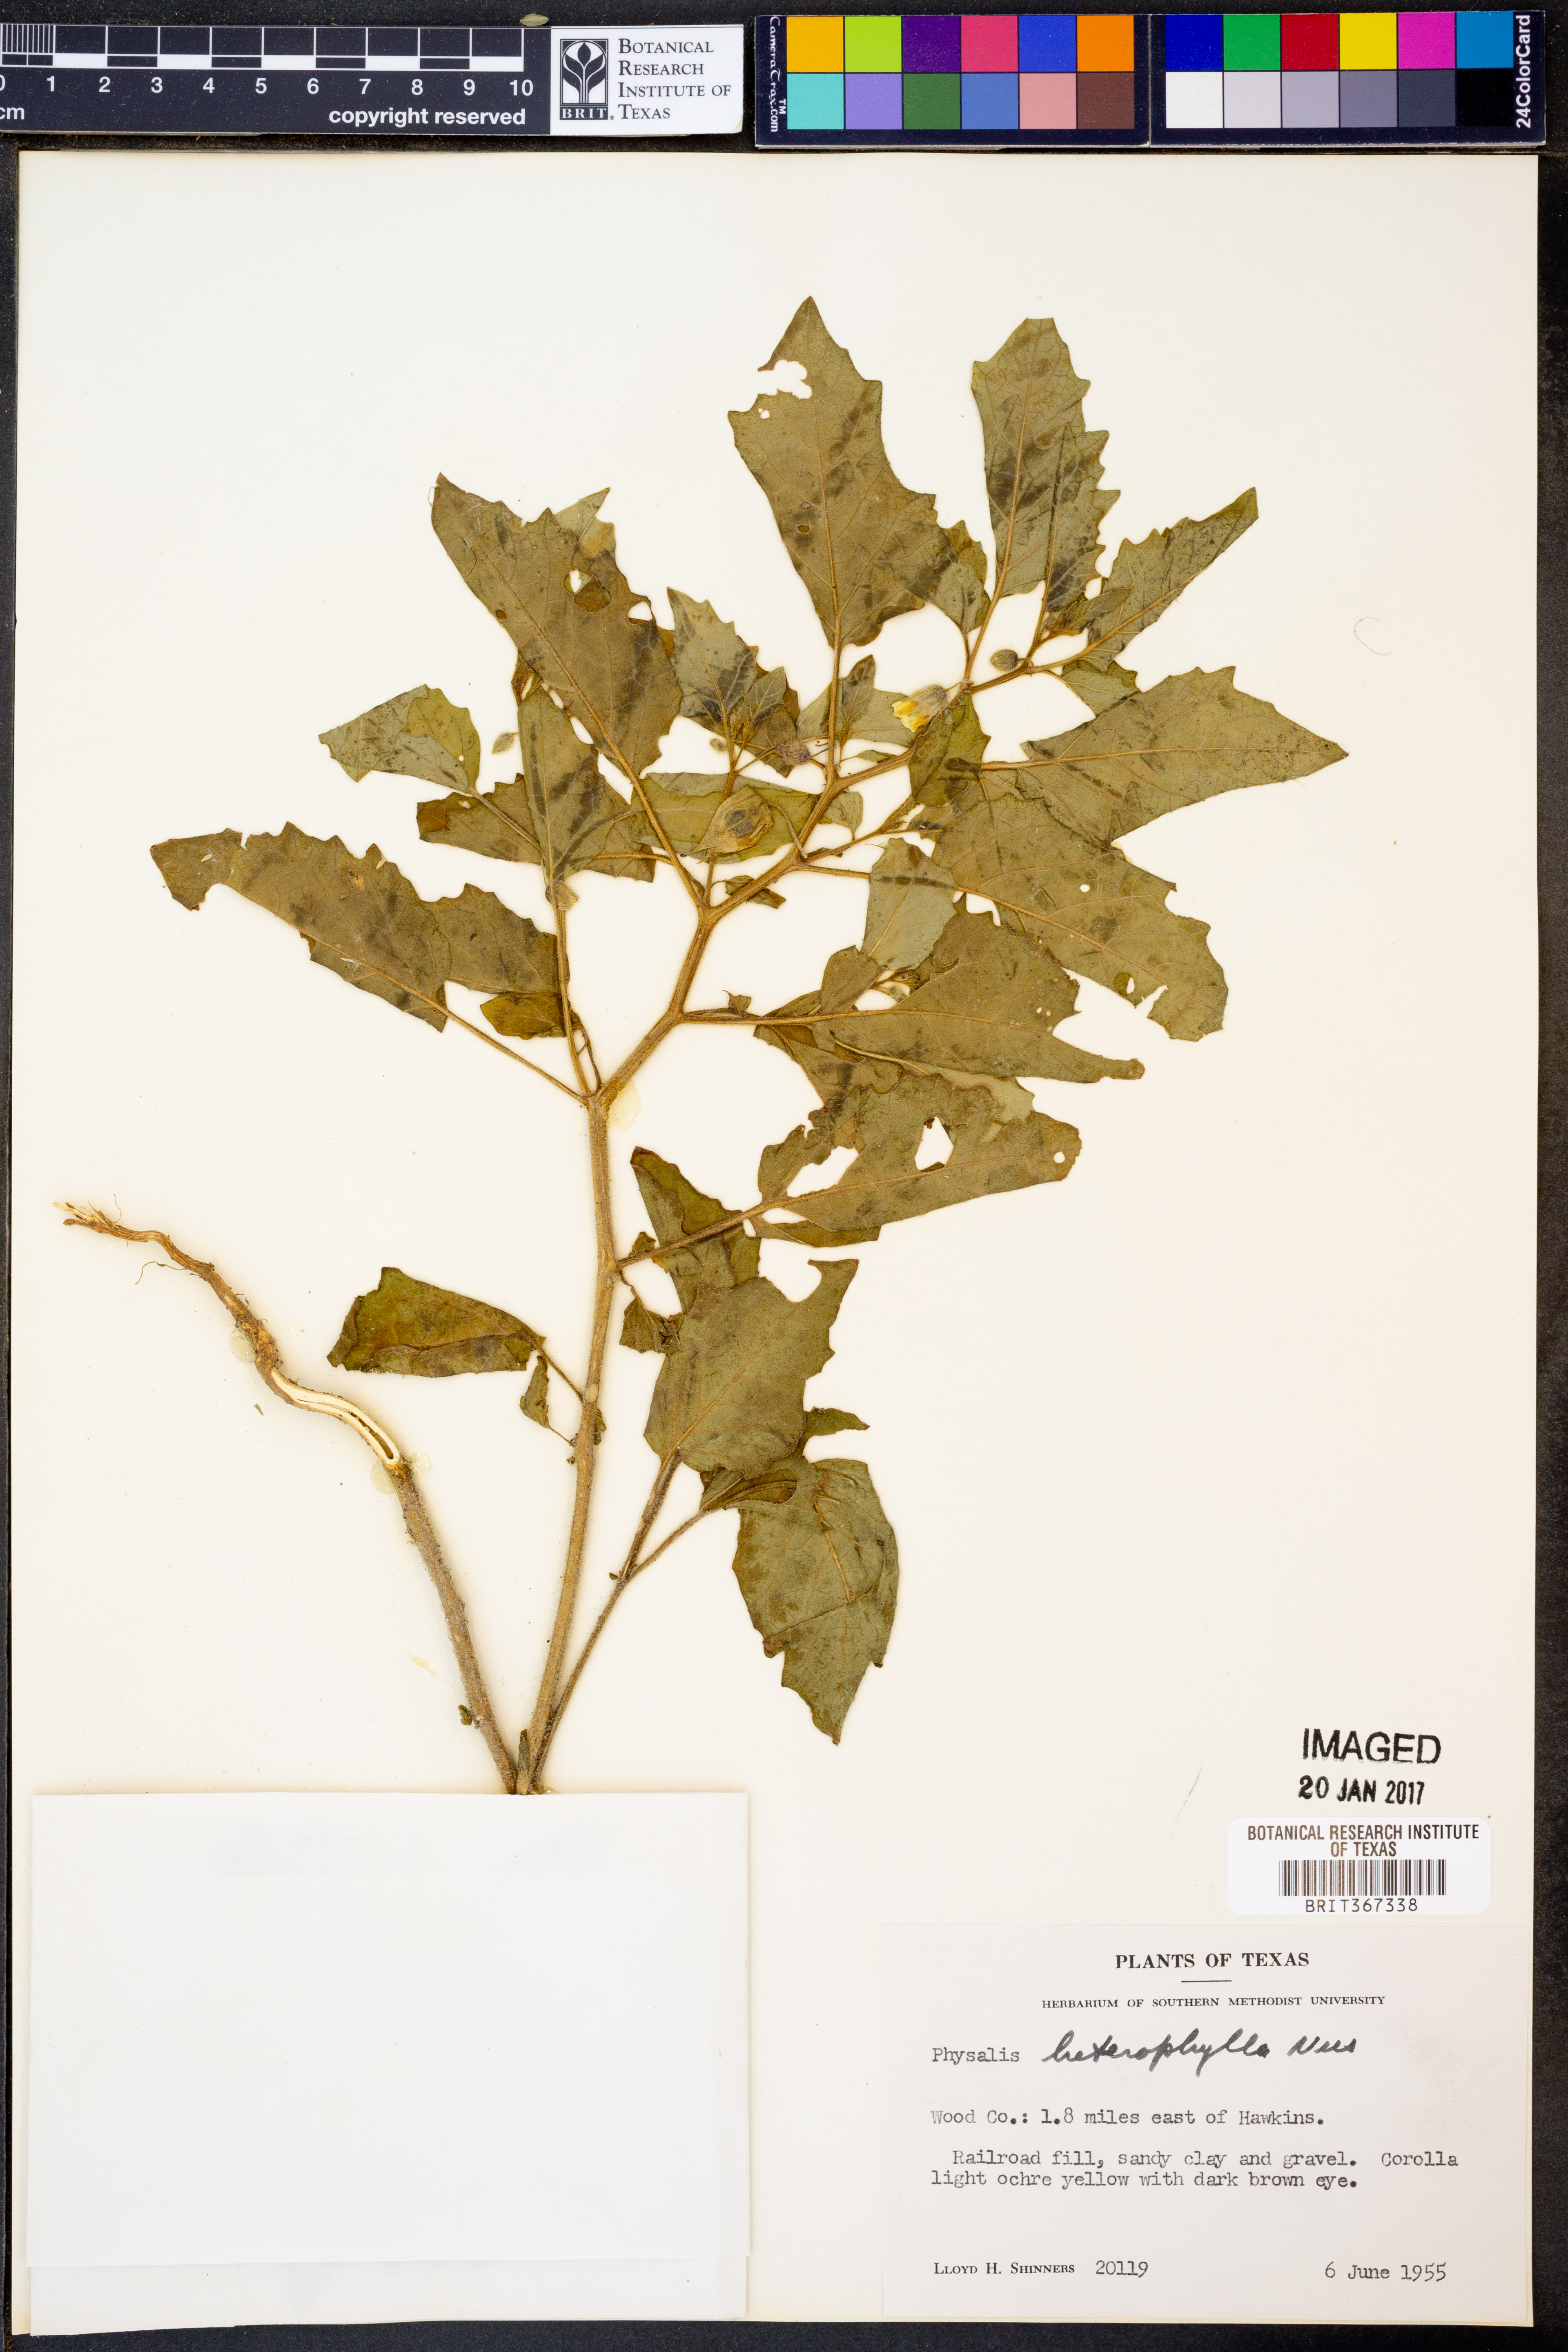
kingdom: Plantae
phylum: Tracheophyta
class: Magnoliopsida
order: Solanales
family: Solanaceae
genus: Physalis
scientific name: Physalis heterophylla
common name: Clammy ground-cherry
